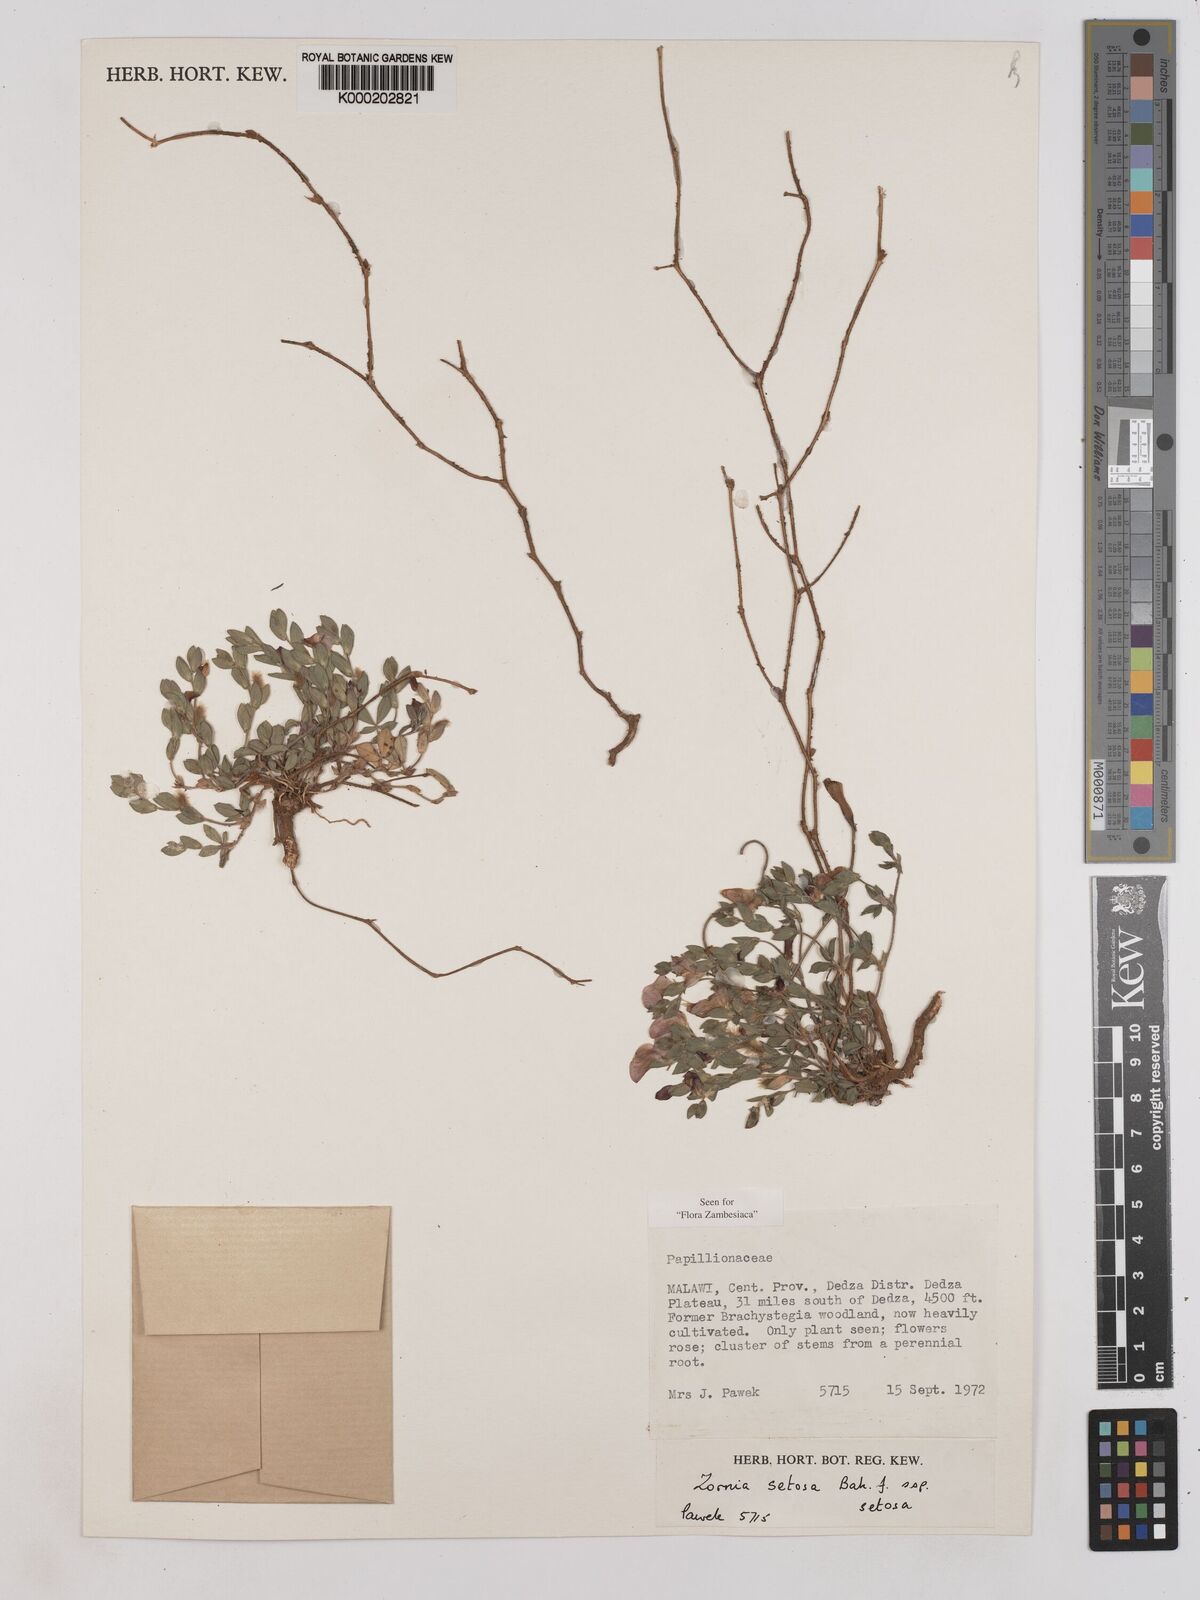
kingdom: Plantae
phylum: Tracheophyta
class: Magnoliopsida
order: Fabales
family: Fabaceae
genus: Zornia
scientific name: Zornia setosa
